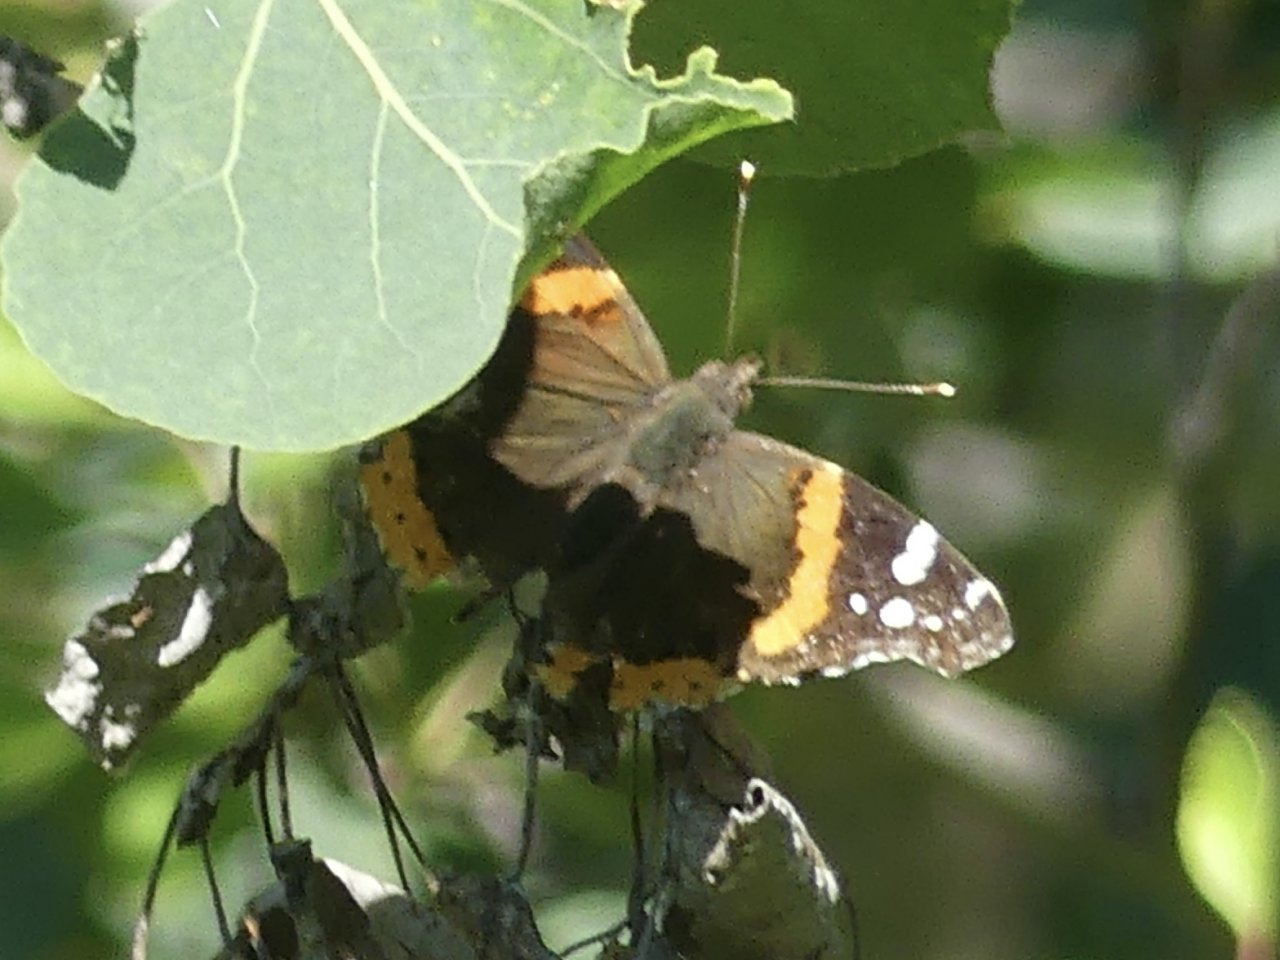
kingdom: Animalia
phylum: Arthropoda
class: Insecta
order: Lepidoptera
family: Nymphalidae
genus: Vanessa
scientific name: Vanessa atalanta
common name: Red Admiral
